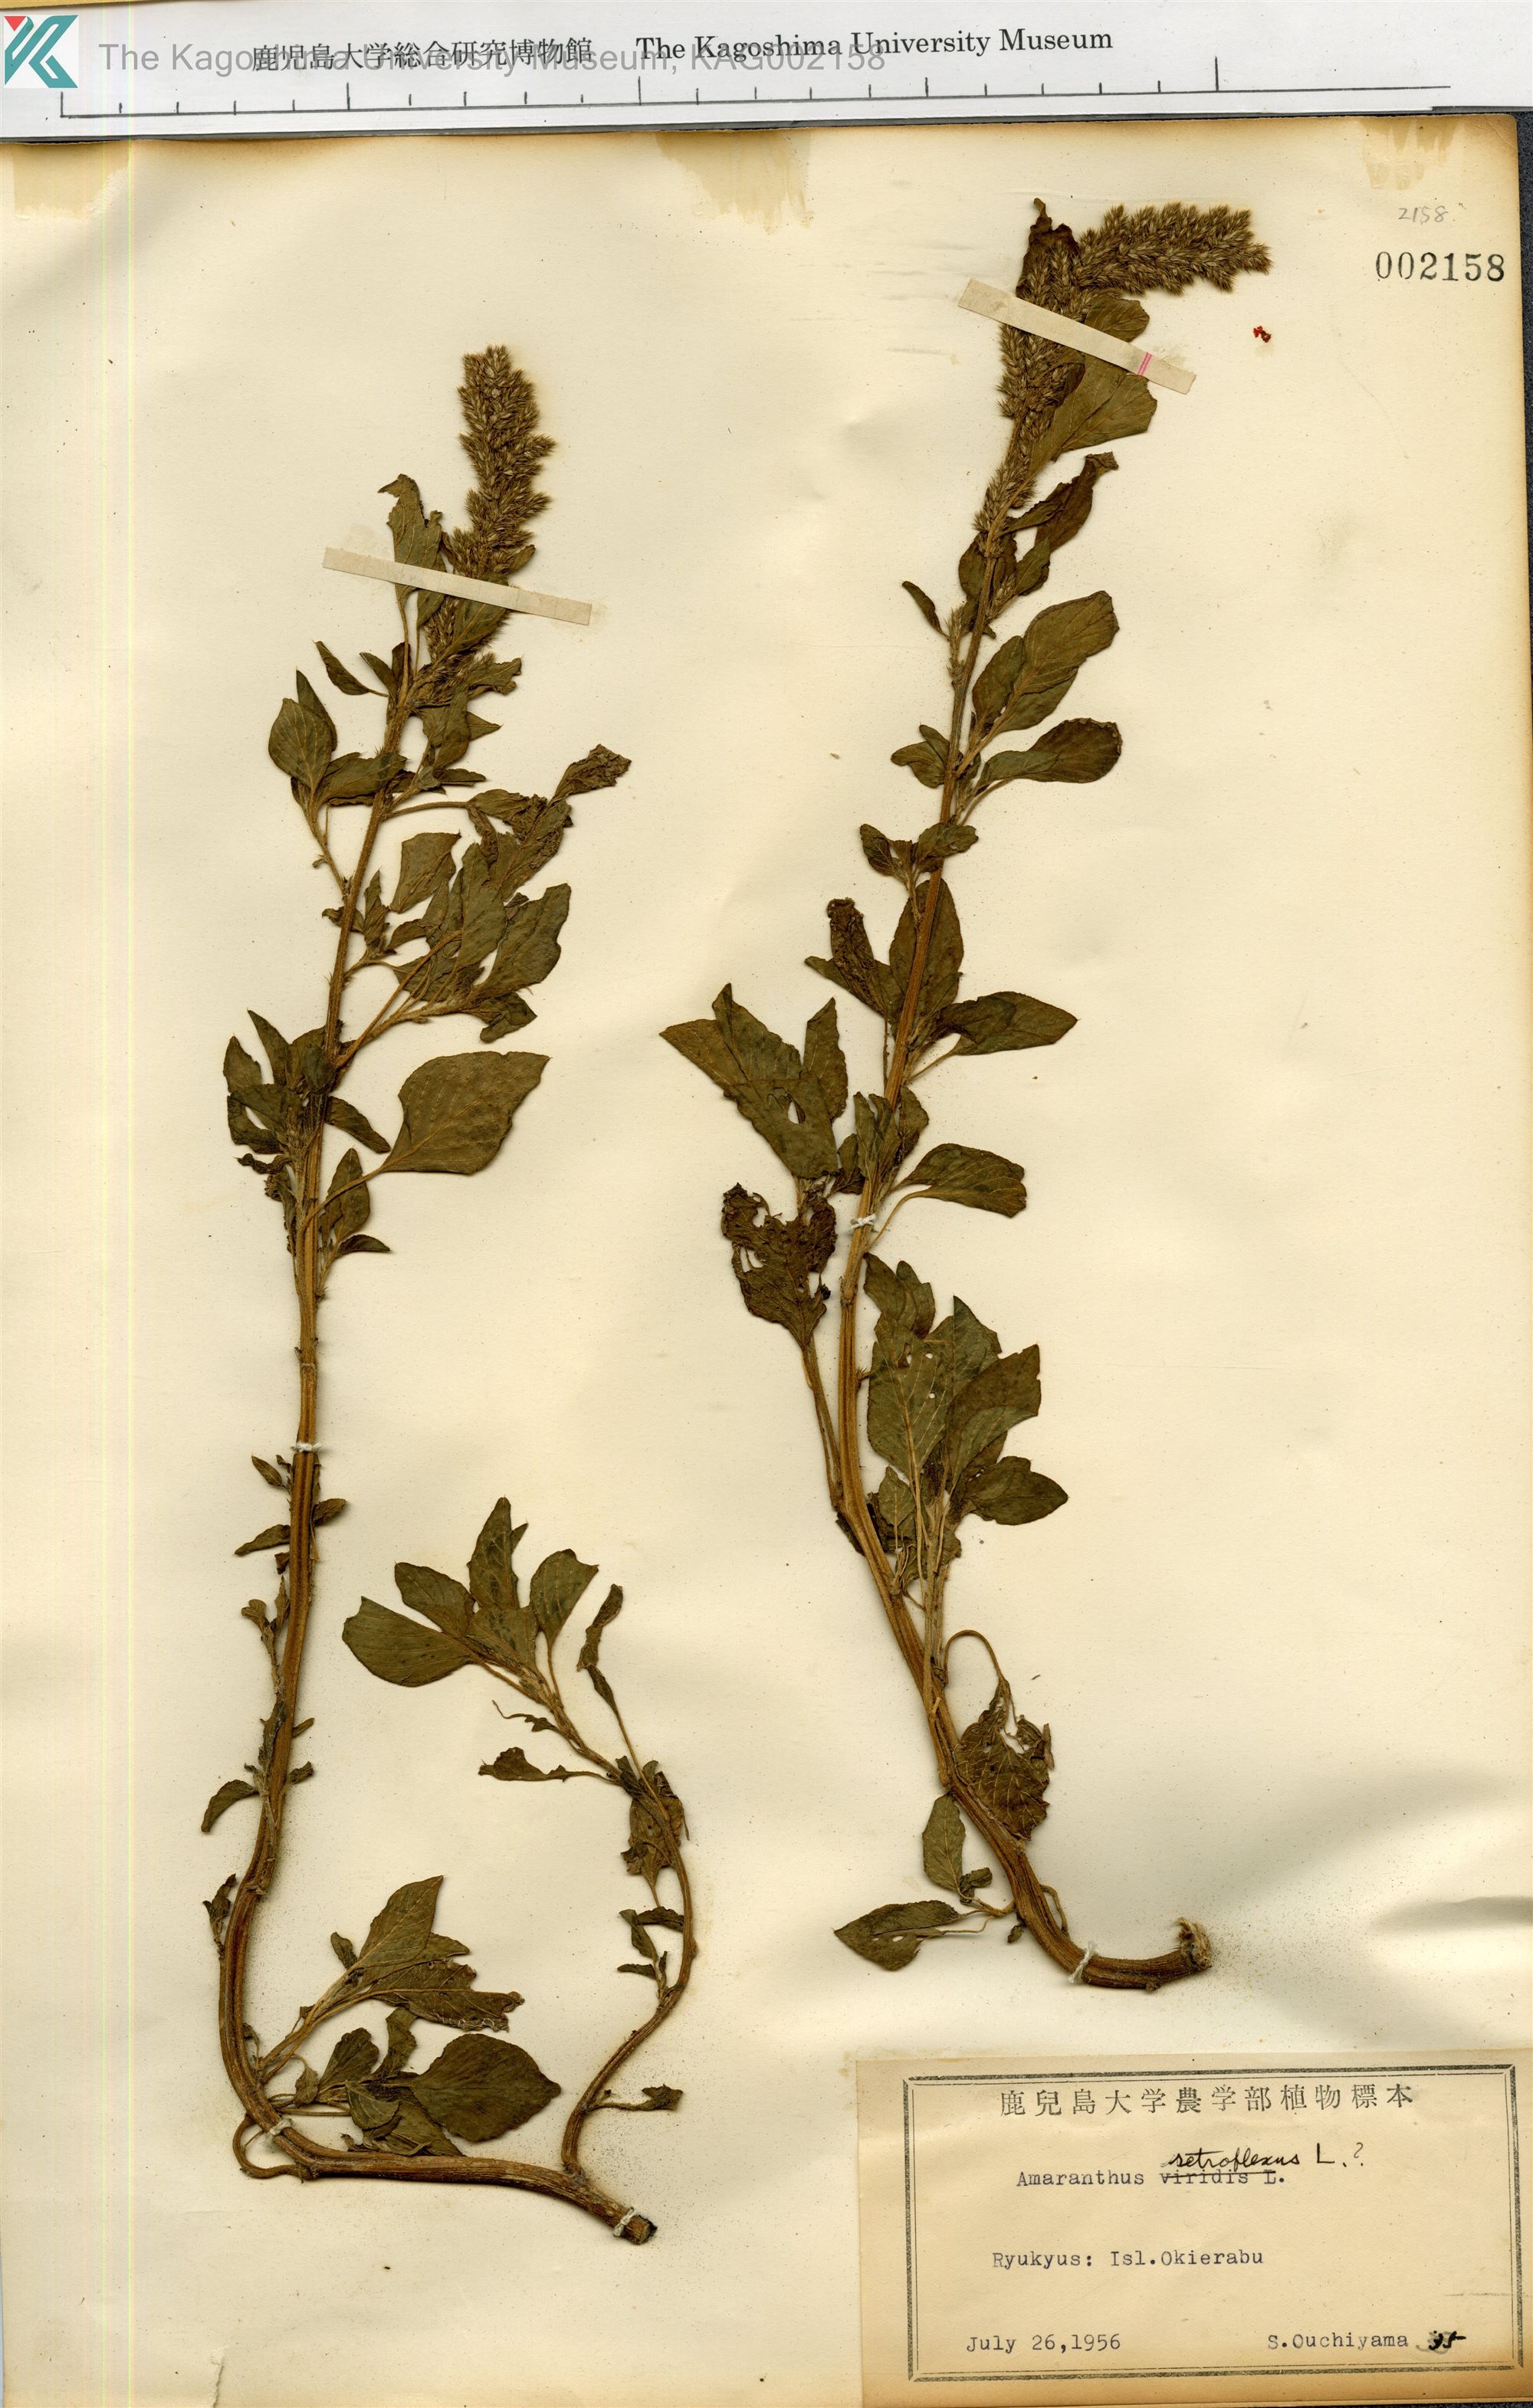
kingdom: Plantae
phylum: Tracheophyta
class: Magnoliopsida
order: Caryophyllales
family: Amaranthaceae
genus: Amaranthus
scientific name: Amaranthus retroflexus
